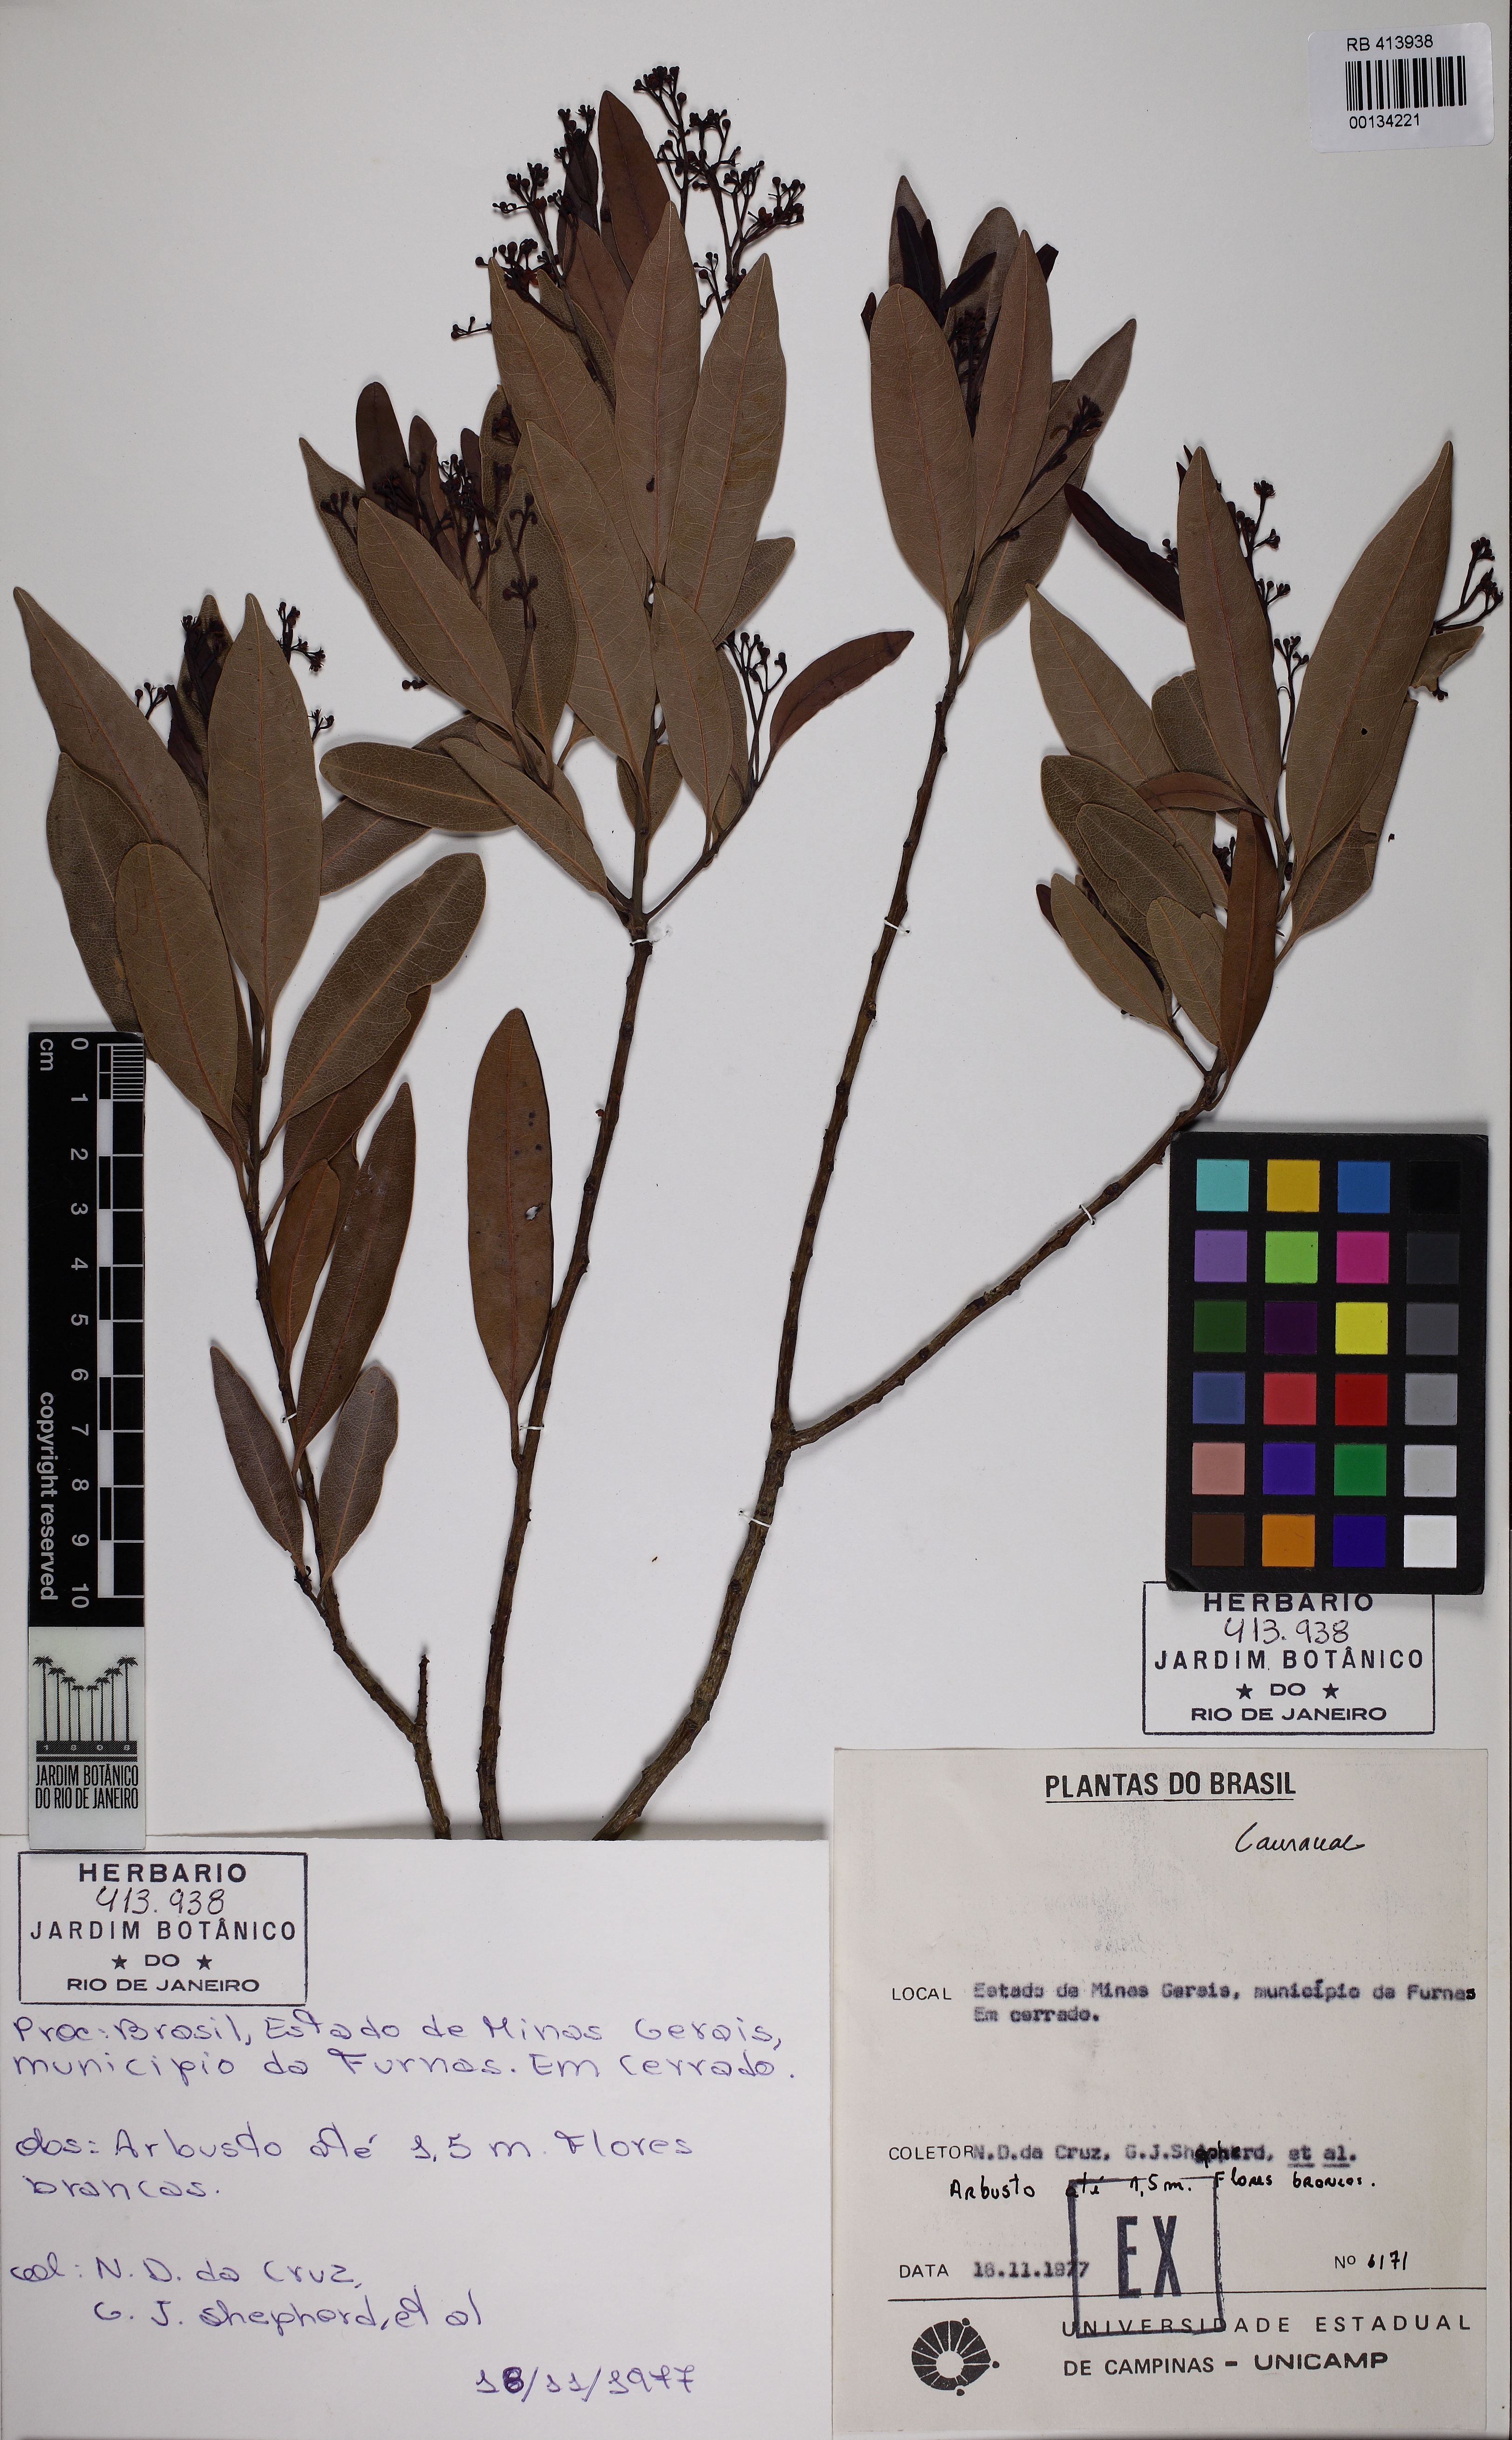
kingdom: Plantae
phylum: Tracheophyta
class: Magnoliopsida
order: Laurales
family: Lauraceae
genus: Ocotea
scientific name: Ocotea
